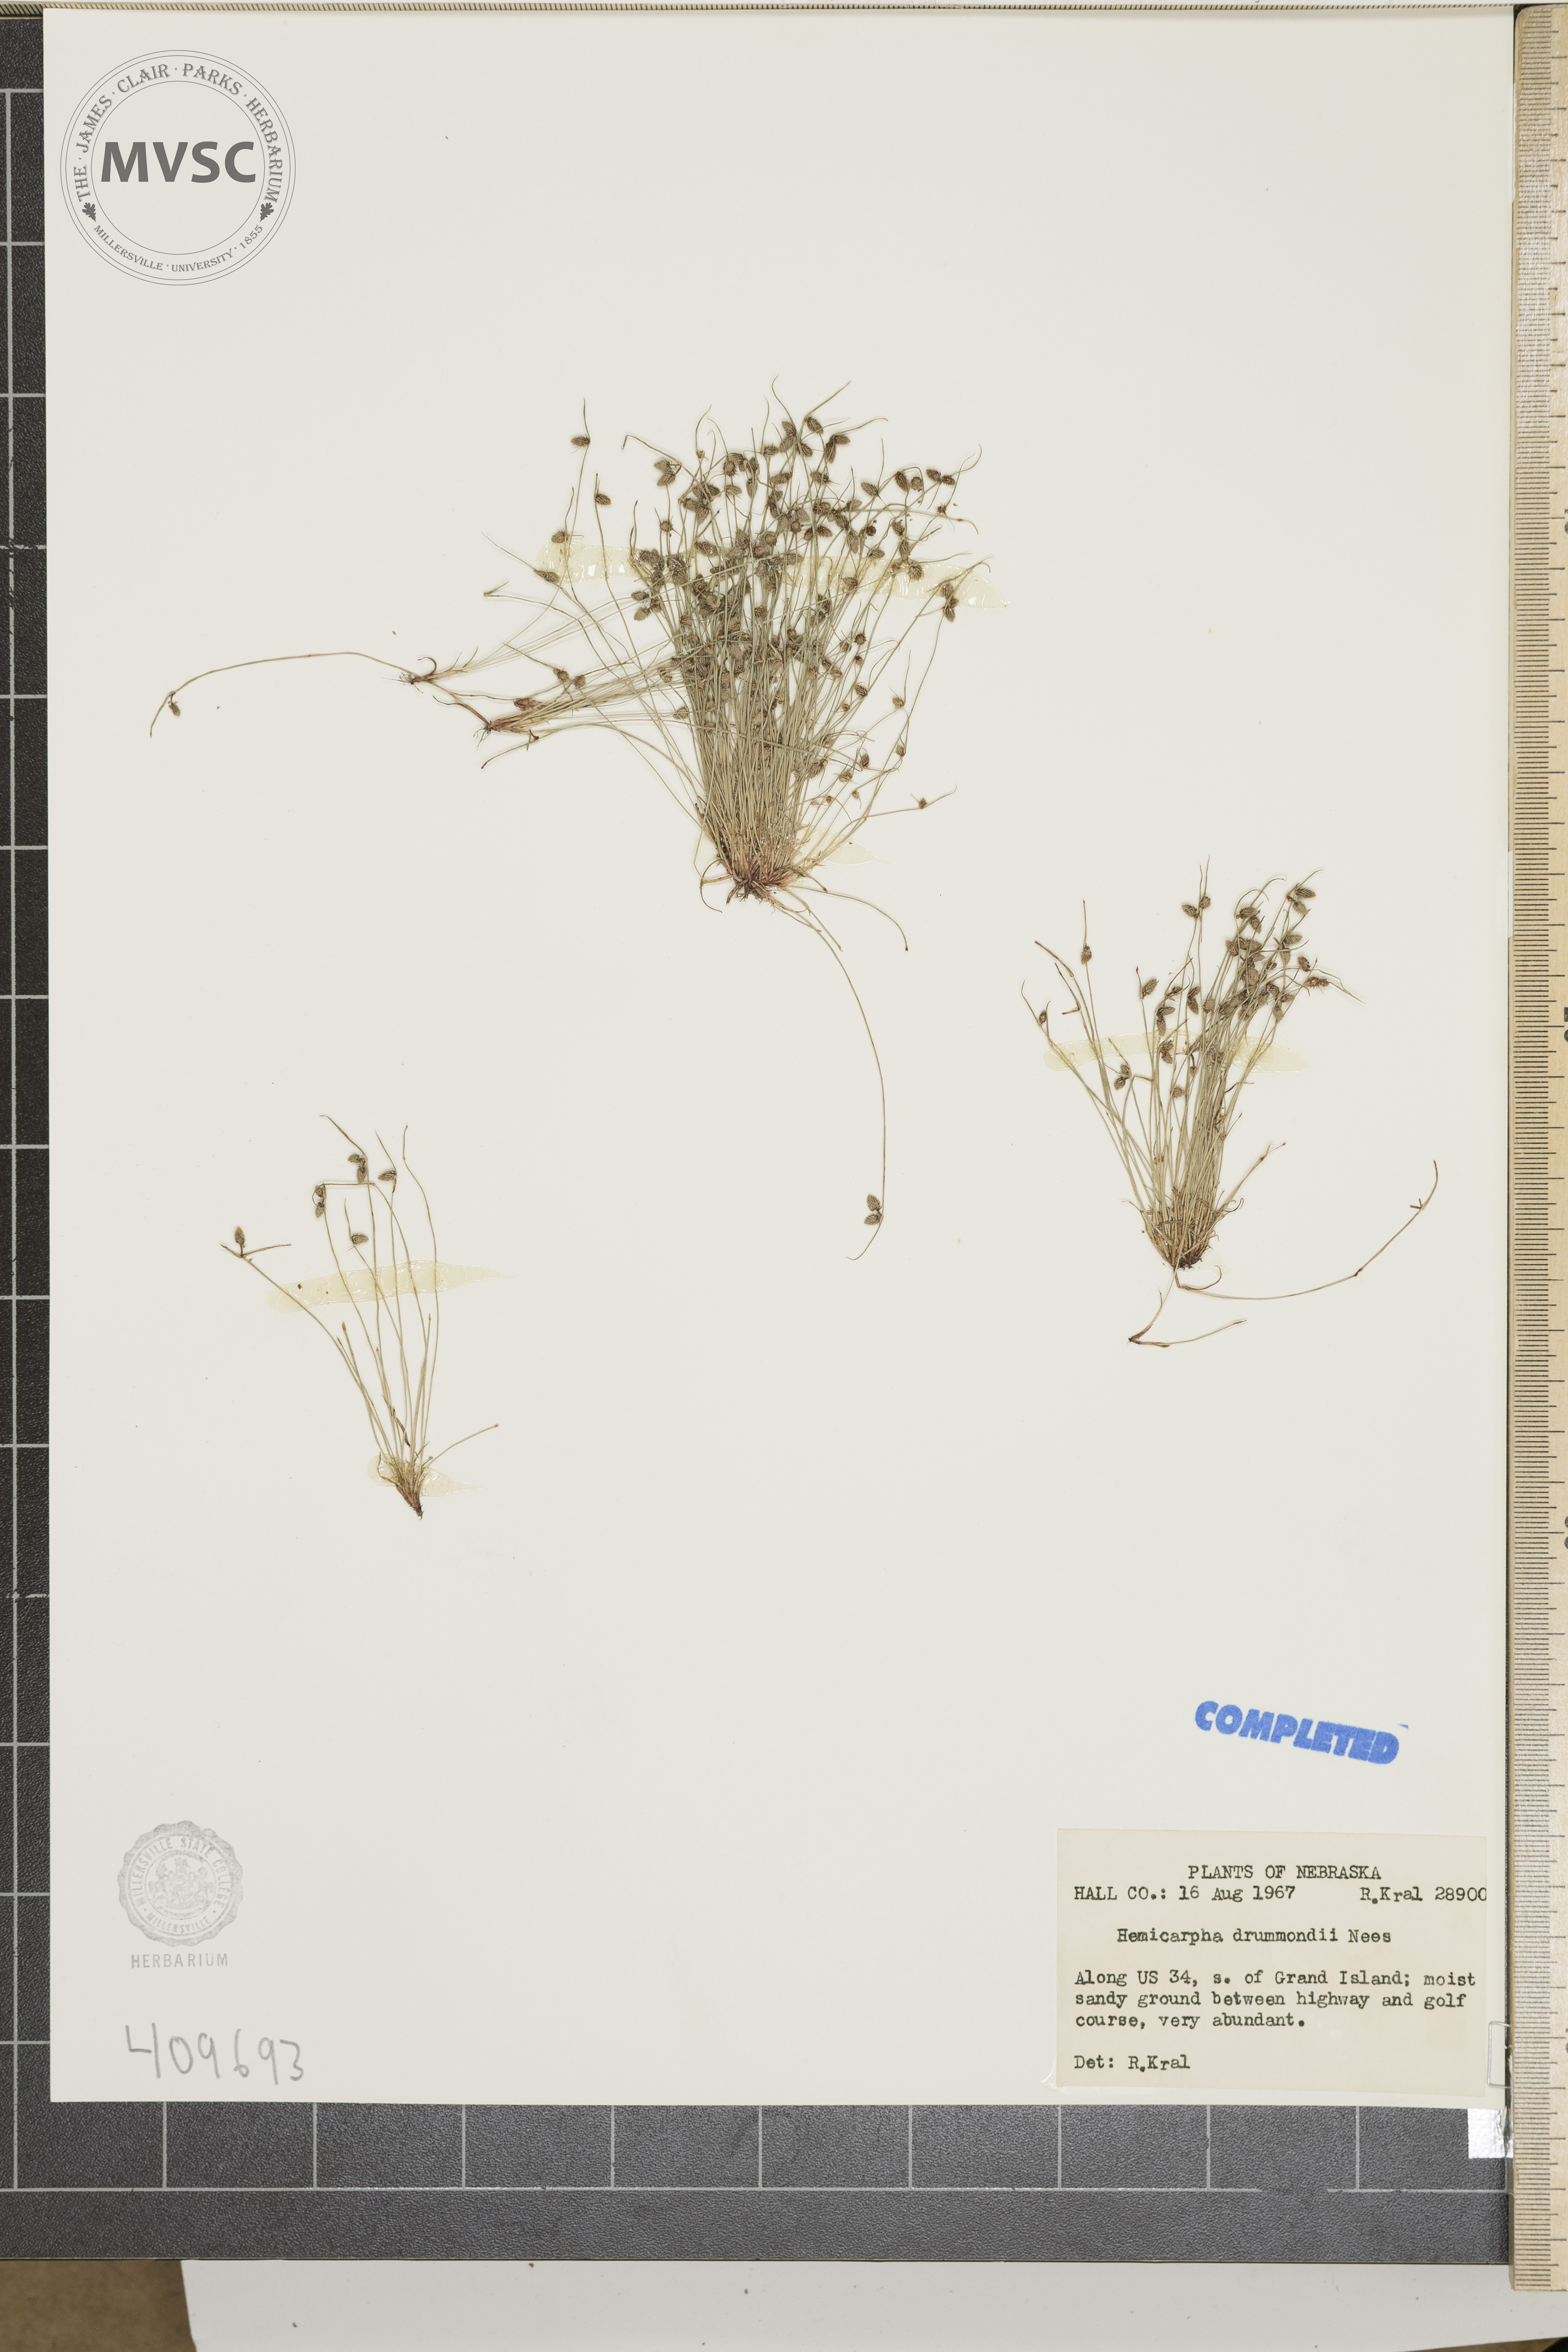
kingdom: Plantae
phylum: Tracheophyta
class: Liliopsida
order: Poales
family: Cyperaceae
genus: Cyperus
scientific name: Cyperus hemidrummondii
